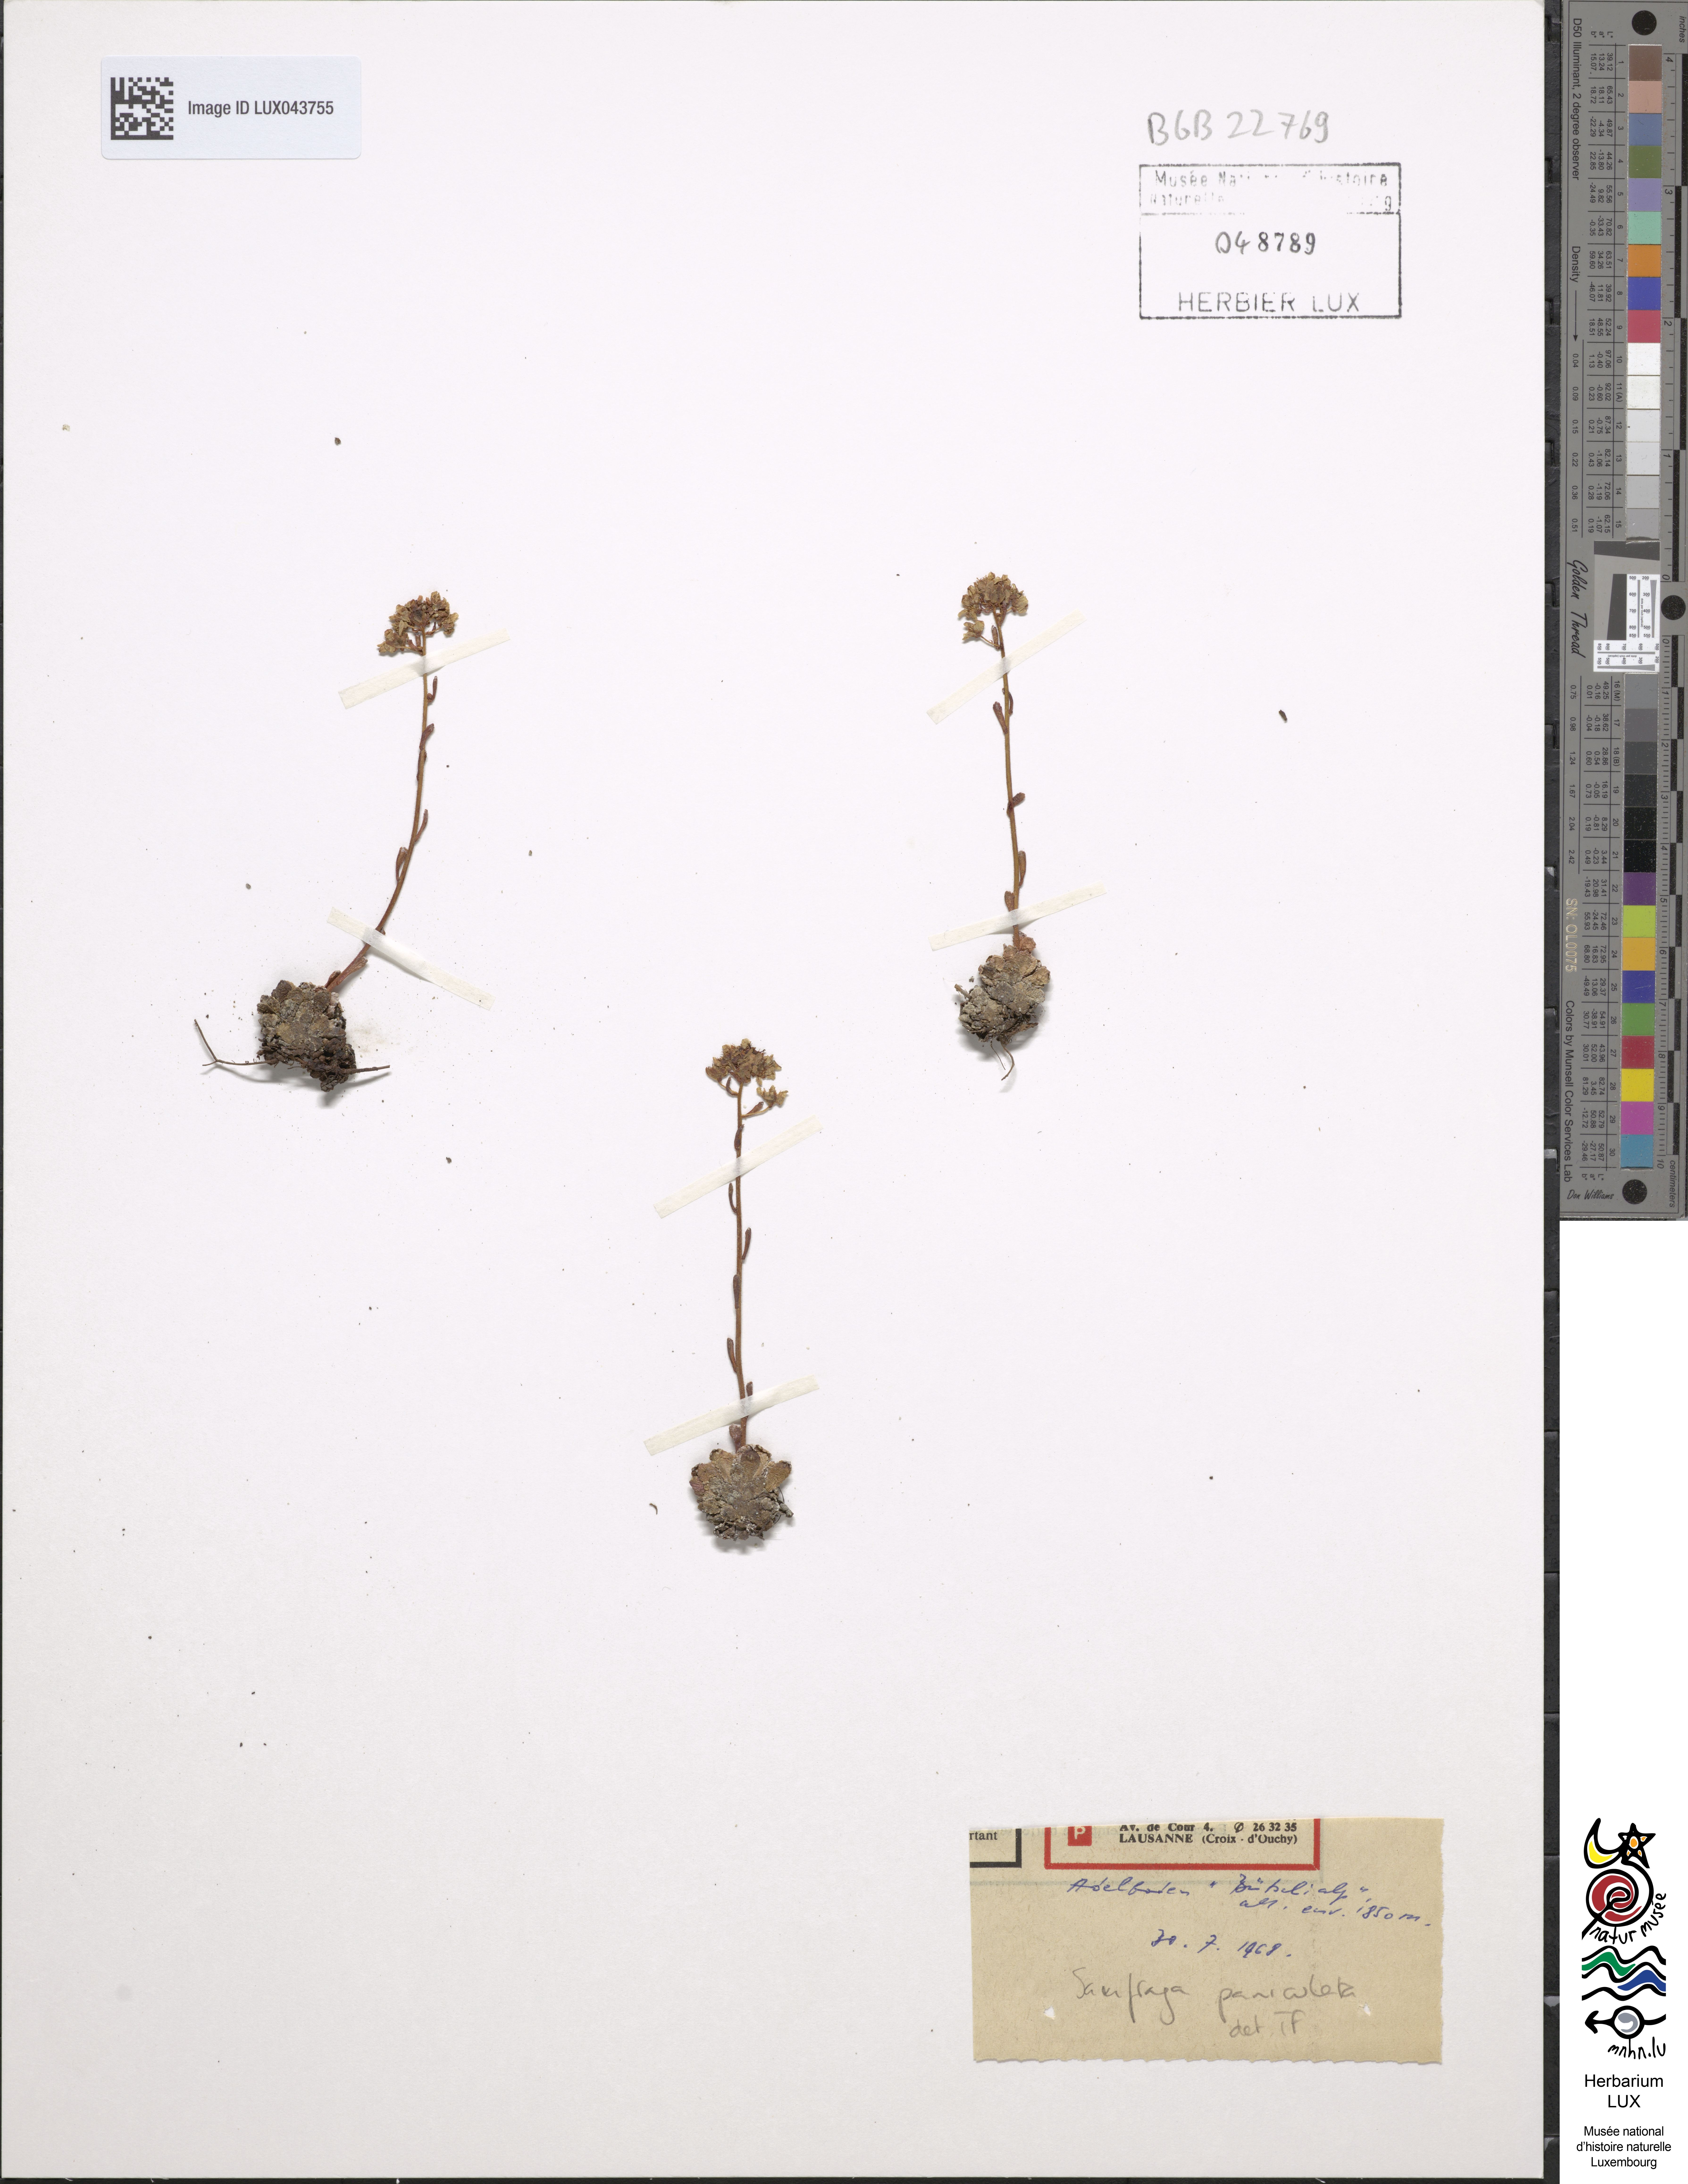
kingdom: Plantae
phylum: Tracheophyta
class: Magnoliopsida
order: Saxifragales
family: Saxifragaceae
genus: Saxifraga
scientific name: Saxifraga paniculata
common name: Livelong saxifrage
